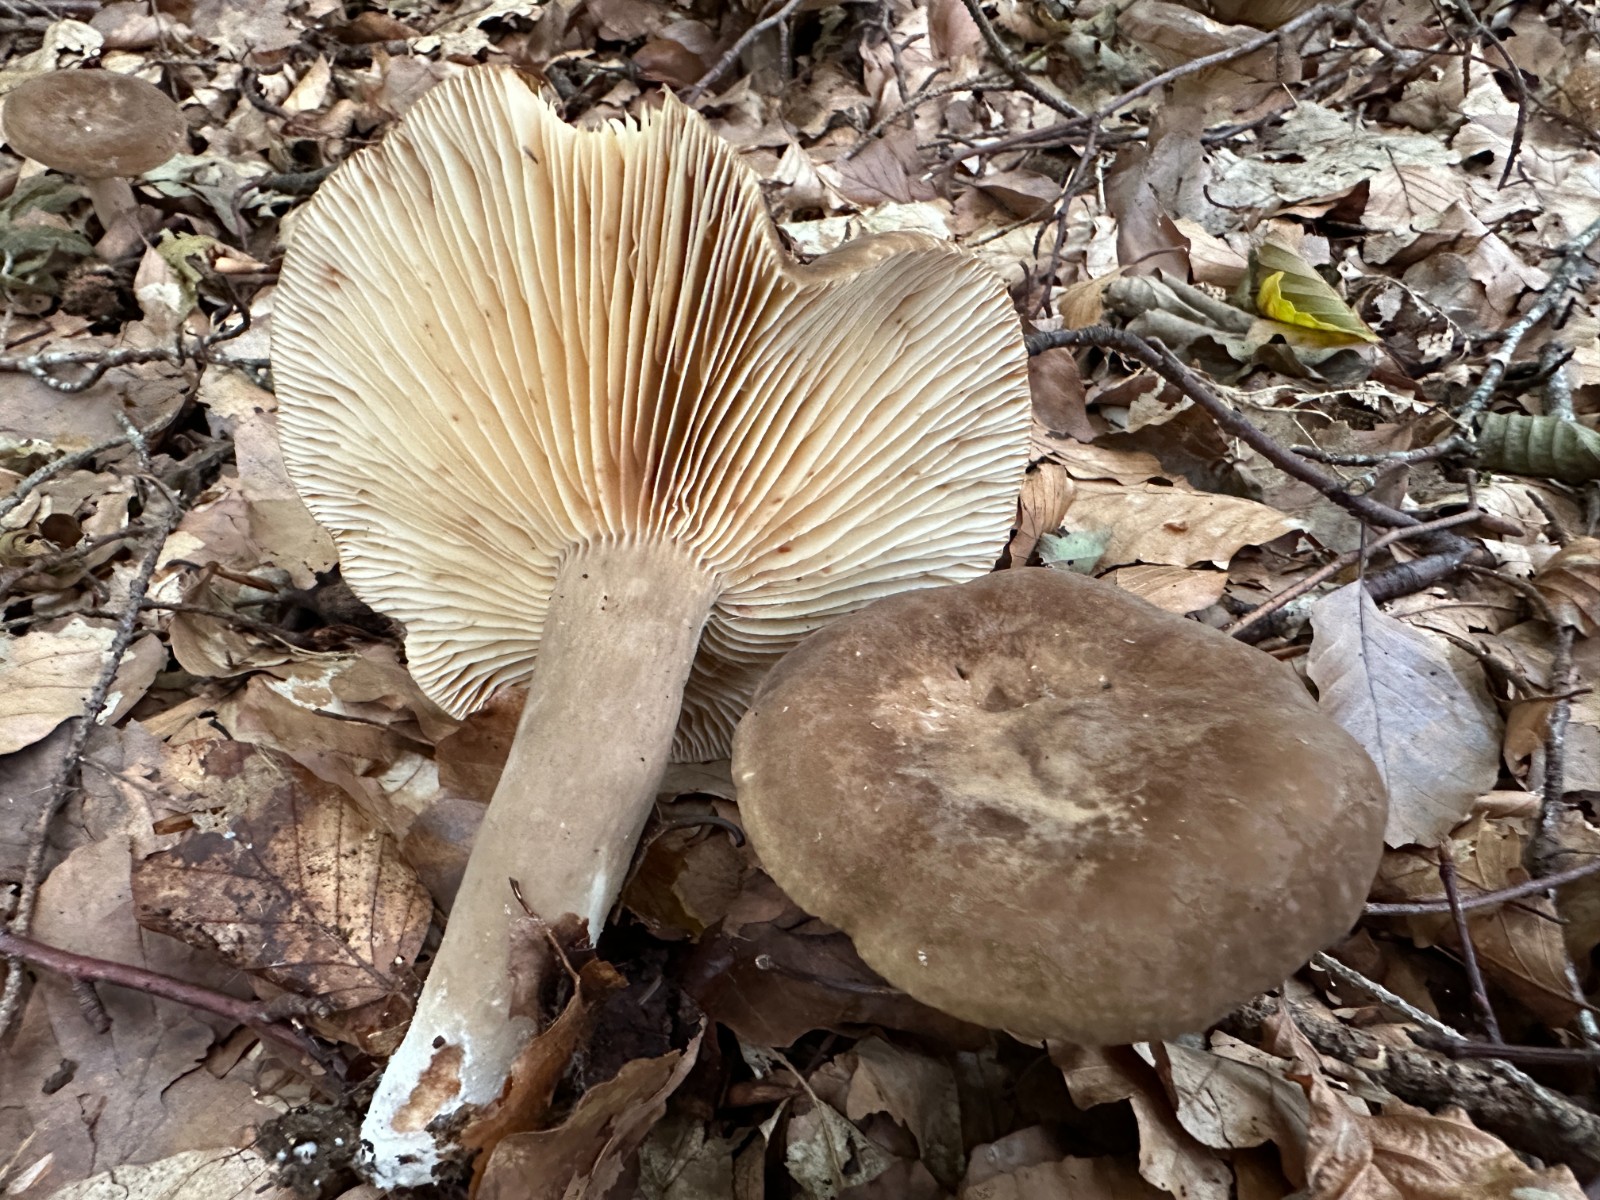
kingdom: Fungi
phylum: Basidiomycota
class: Agaricomycetes
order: Russulales
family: Russulaceae
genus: Lactarius
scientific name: Lactarius romagnesii
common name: fjernbladet mælkehat
